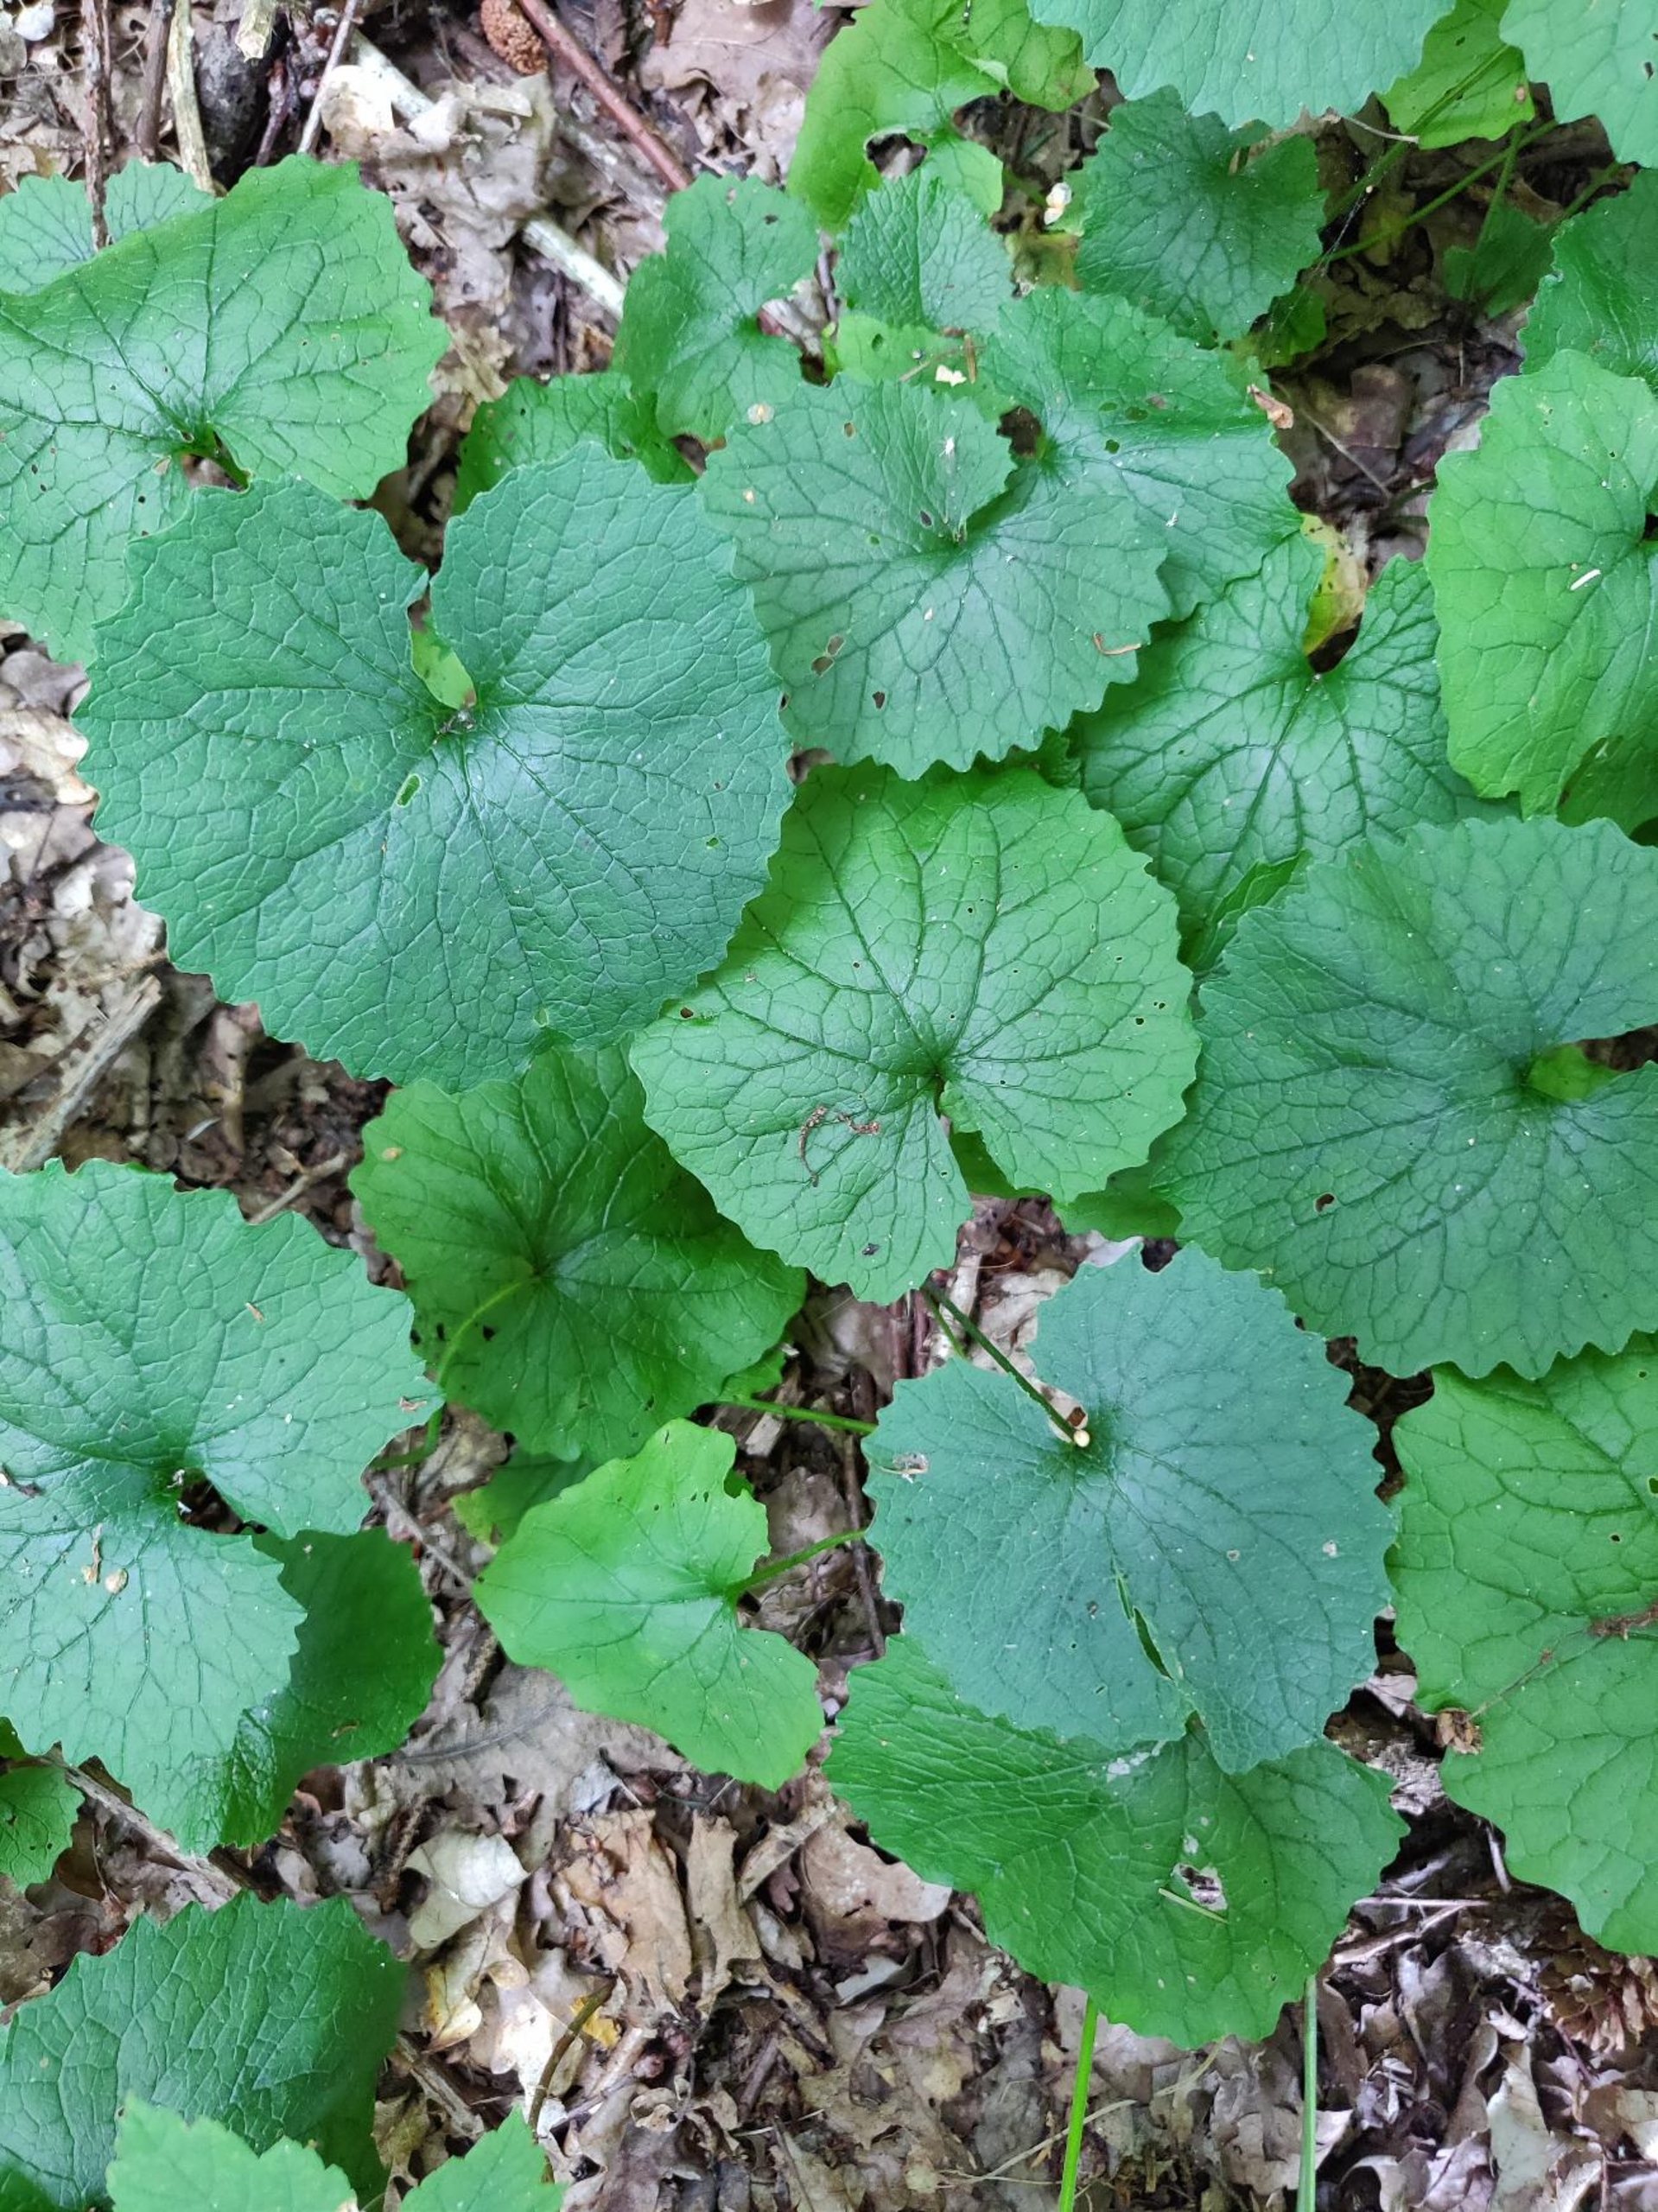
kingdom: Plantae
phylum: Tracheophyta
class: Magnoliopsida
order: Brassicales
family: Brassicaceae
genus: Alliaria
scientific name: Alliaria petiolata
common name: Løgkarse
